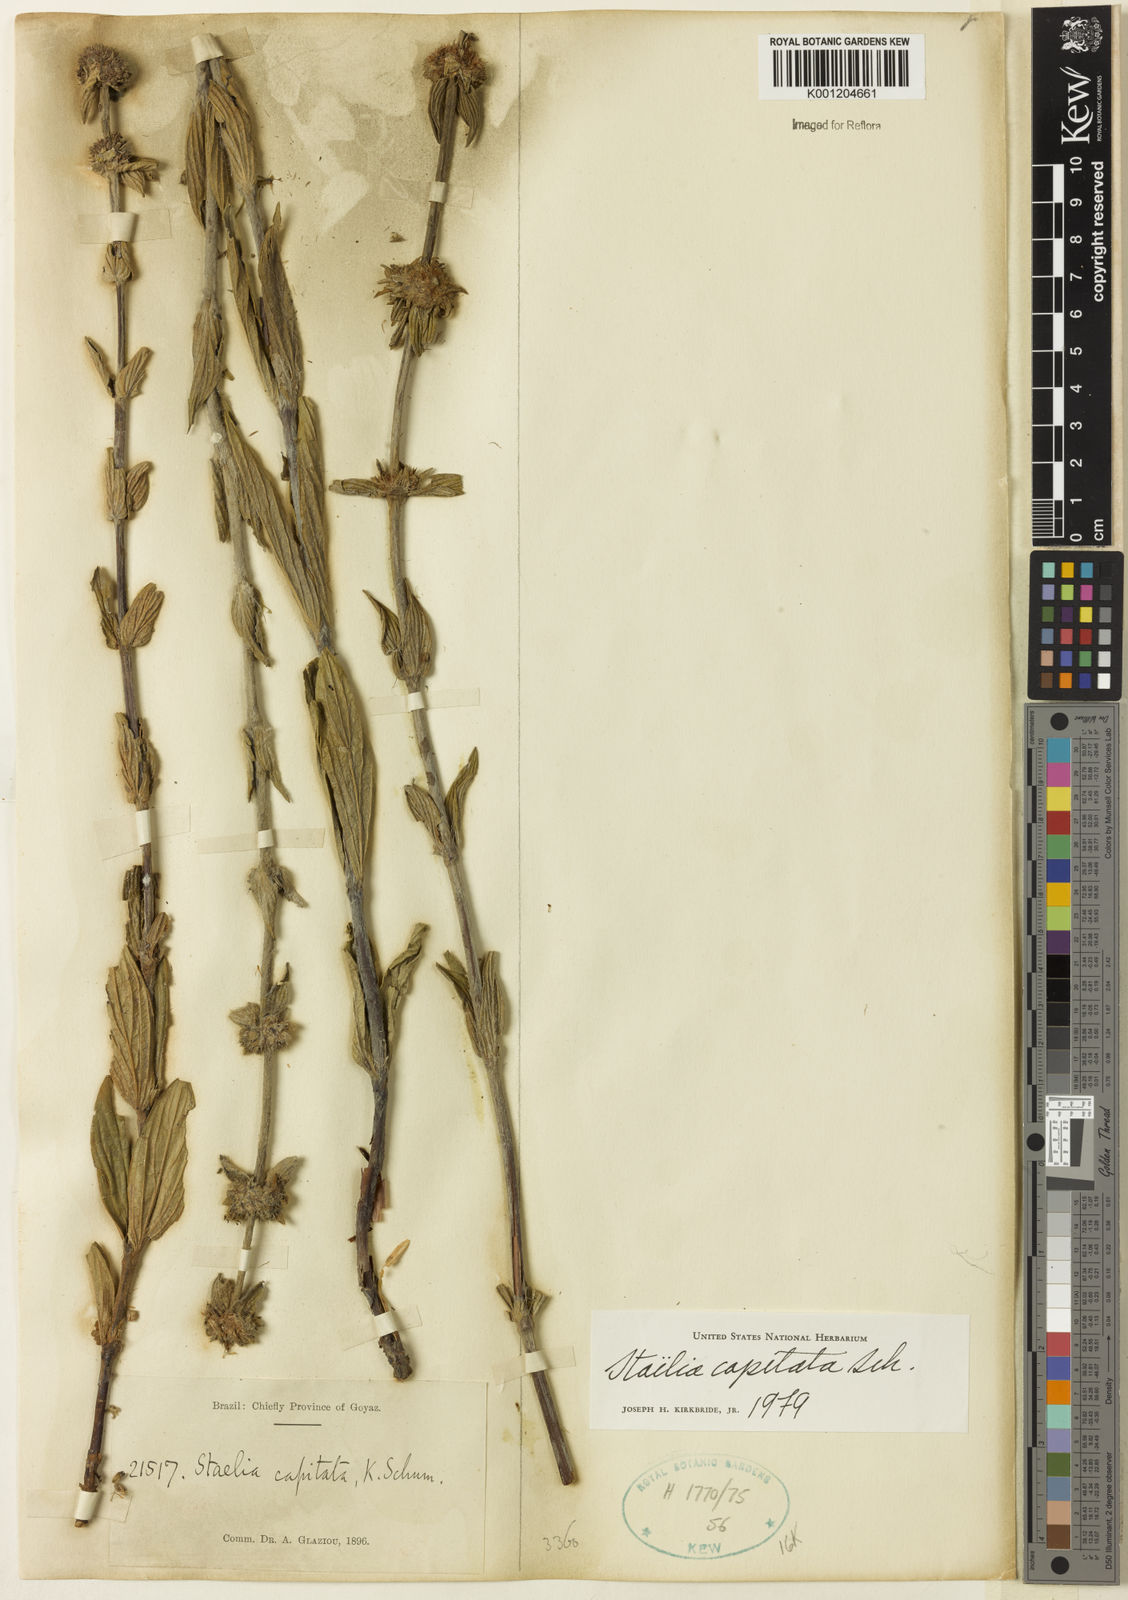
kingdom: Plantae
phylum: Tracheophyta
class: Magnoliopsida
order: Gentianales
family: Rubiaceae
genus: Planaltina
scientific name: Planaltina capitata
